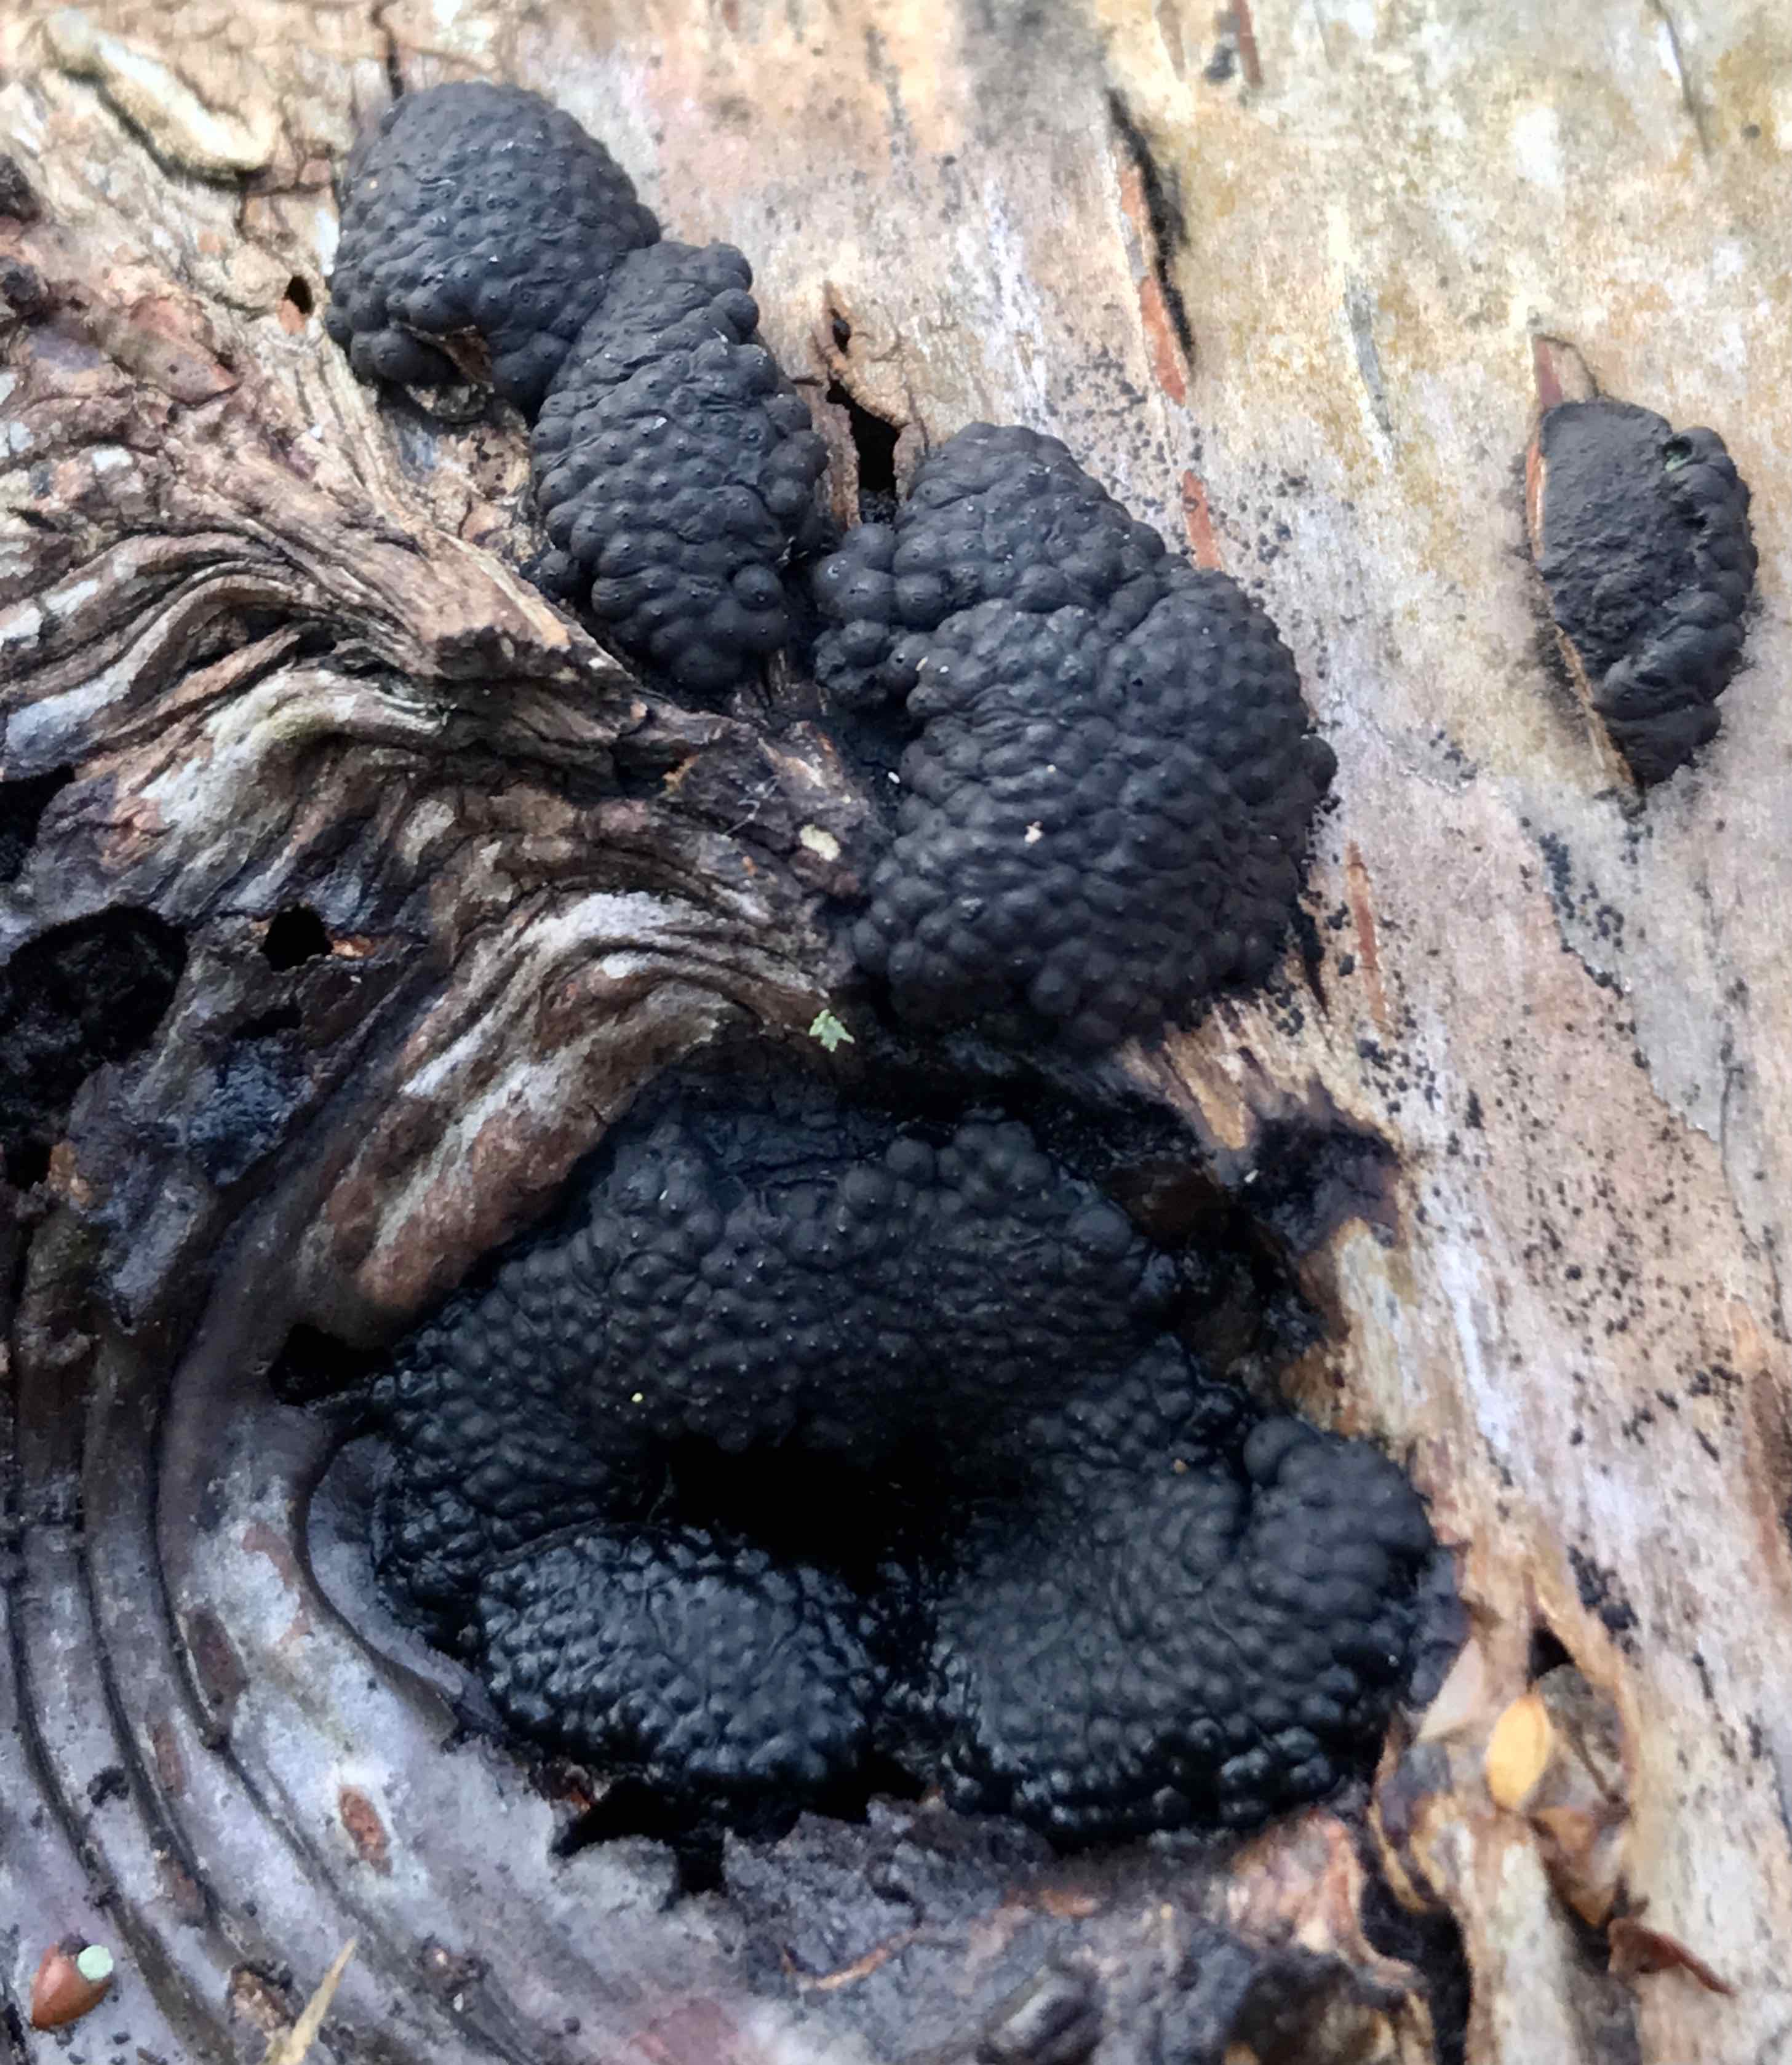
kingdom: Fungi
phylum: Ascomycota
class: Sordariomycetes
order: Xylariales
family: Hypoxylaceae
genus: Jackrogersella
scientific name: Jackrogersella multiformis
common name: foranderlig kulbær
